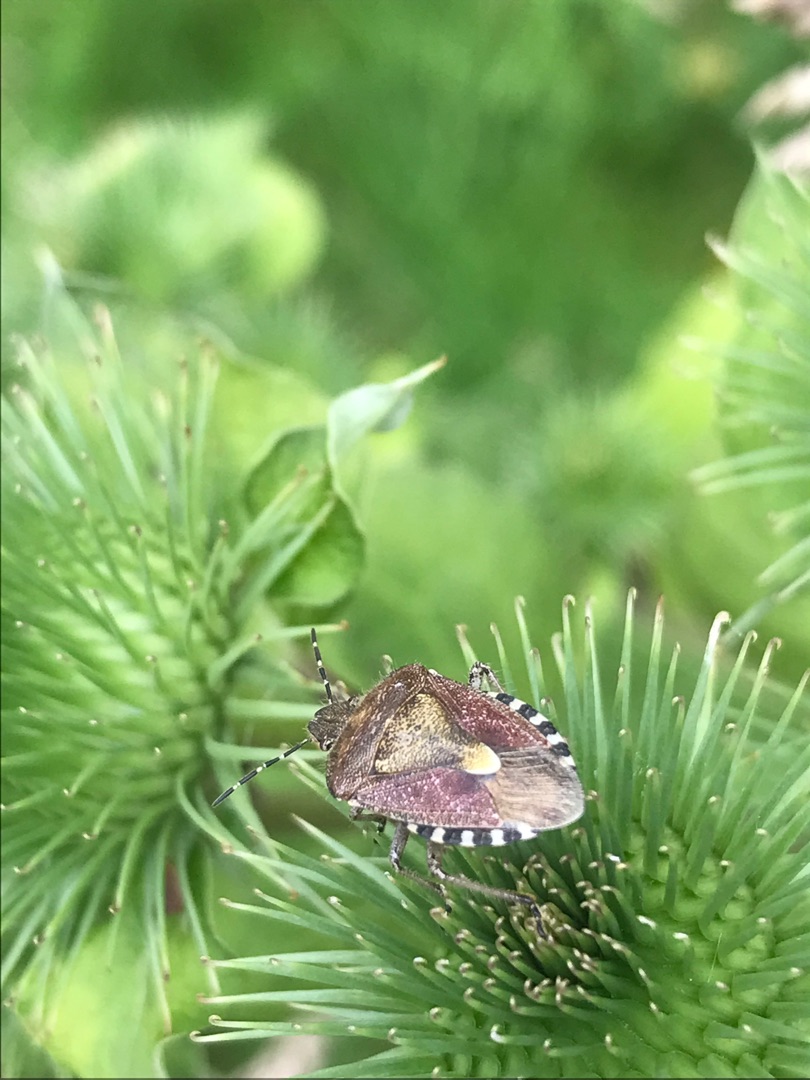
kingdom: Animalia
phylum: Arthropoda
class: Insecta
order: Hemiptera
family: Pentatomidae
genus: Dolycoris
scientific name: Dolycoris baccarum
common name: Almindelig bærtæge
